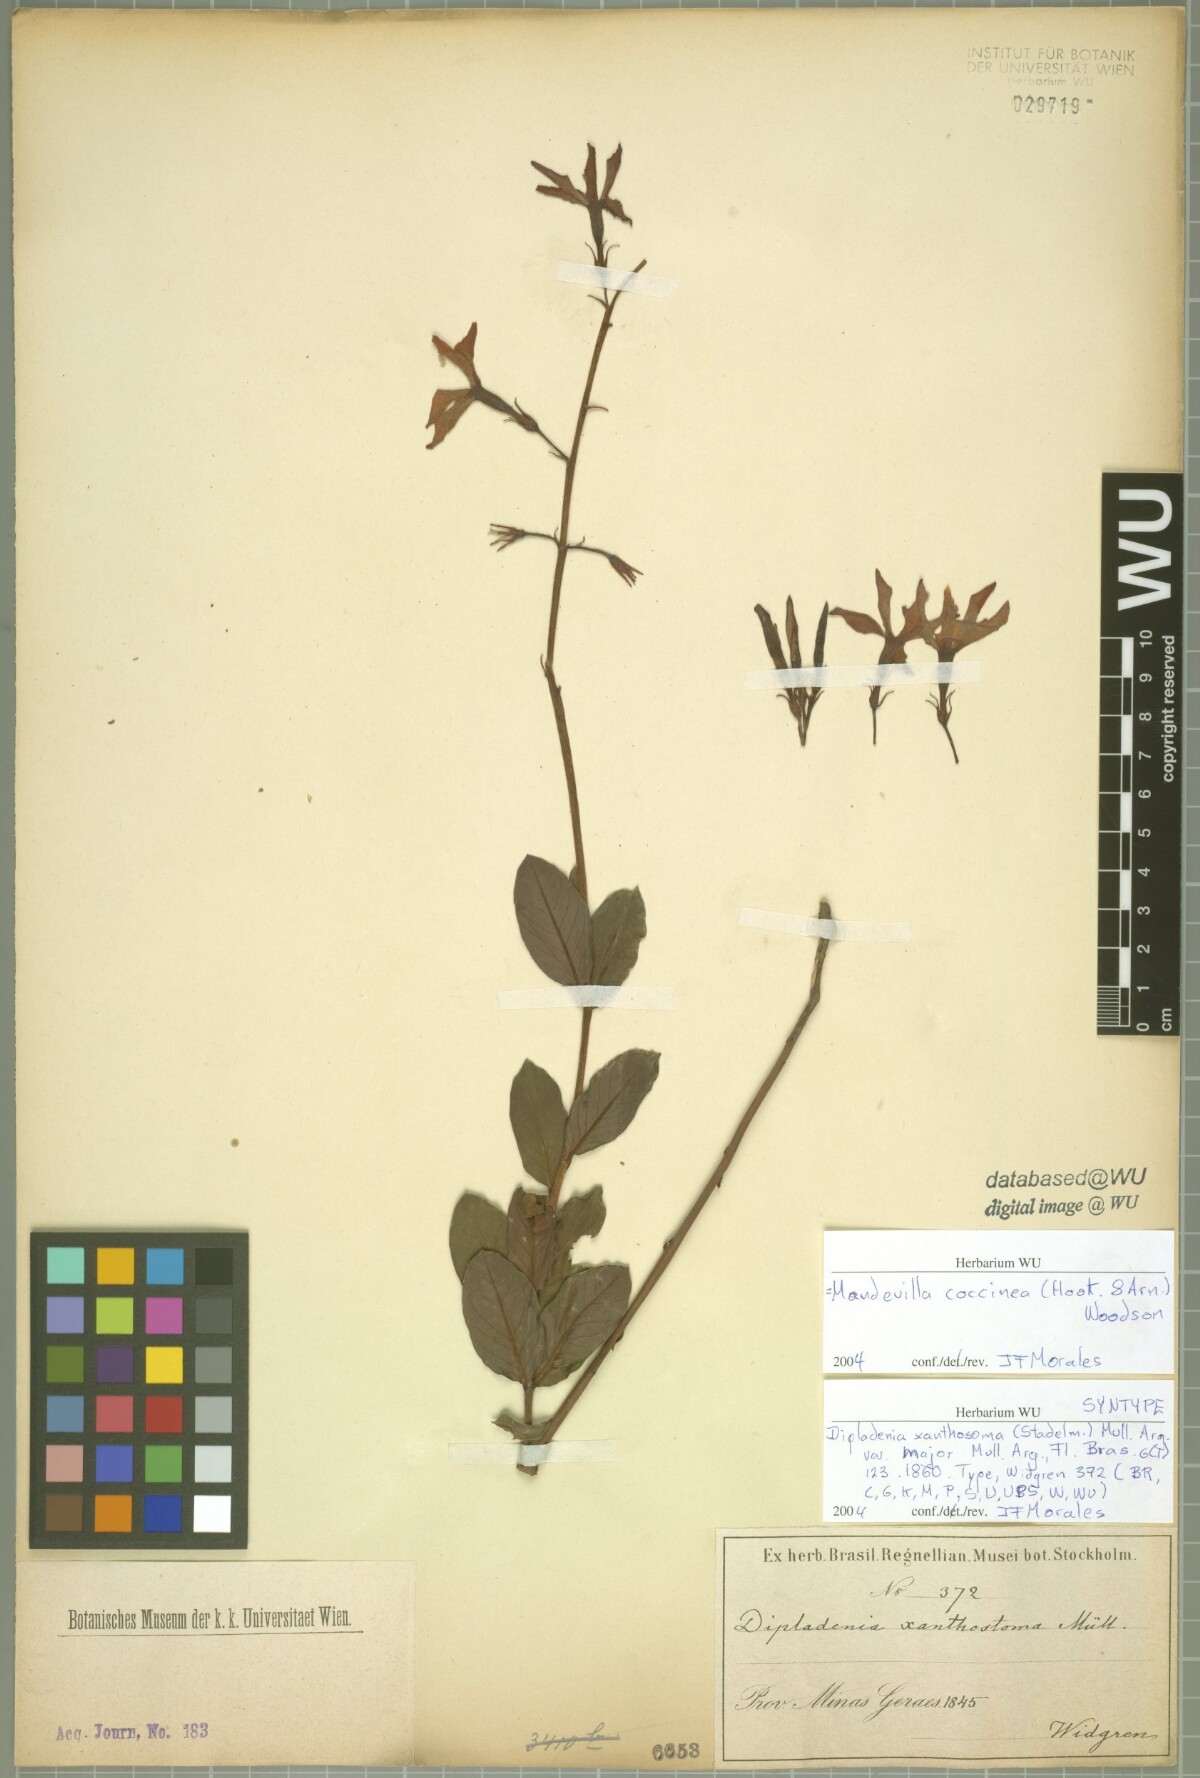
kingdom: Plantae
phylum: Tracheophyta
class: Magnoliopsida
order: Gentianales
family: Apocynaceae
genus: Mandevilla
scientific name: Mandevilla coccinea
